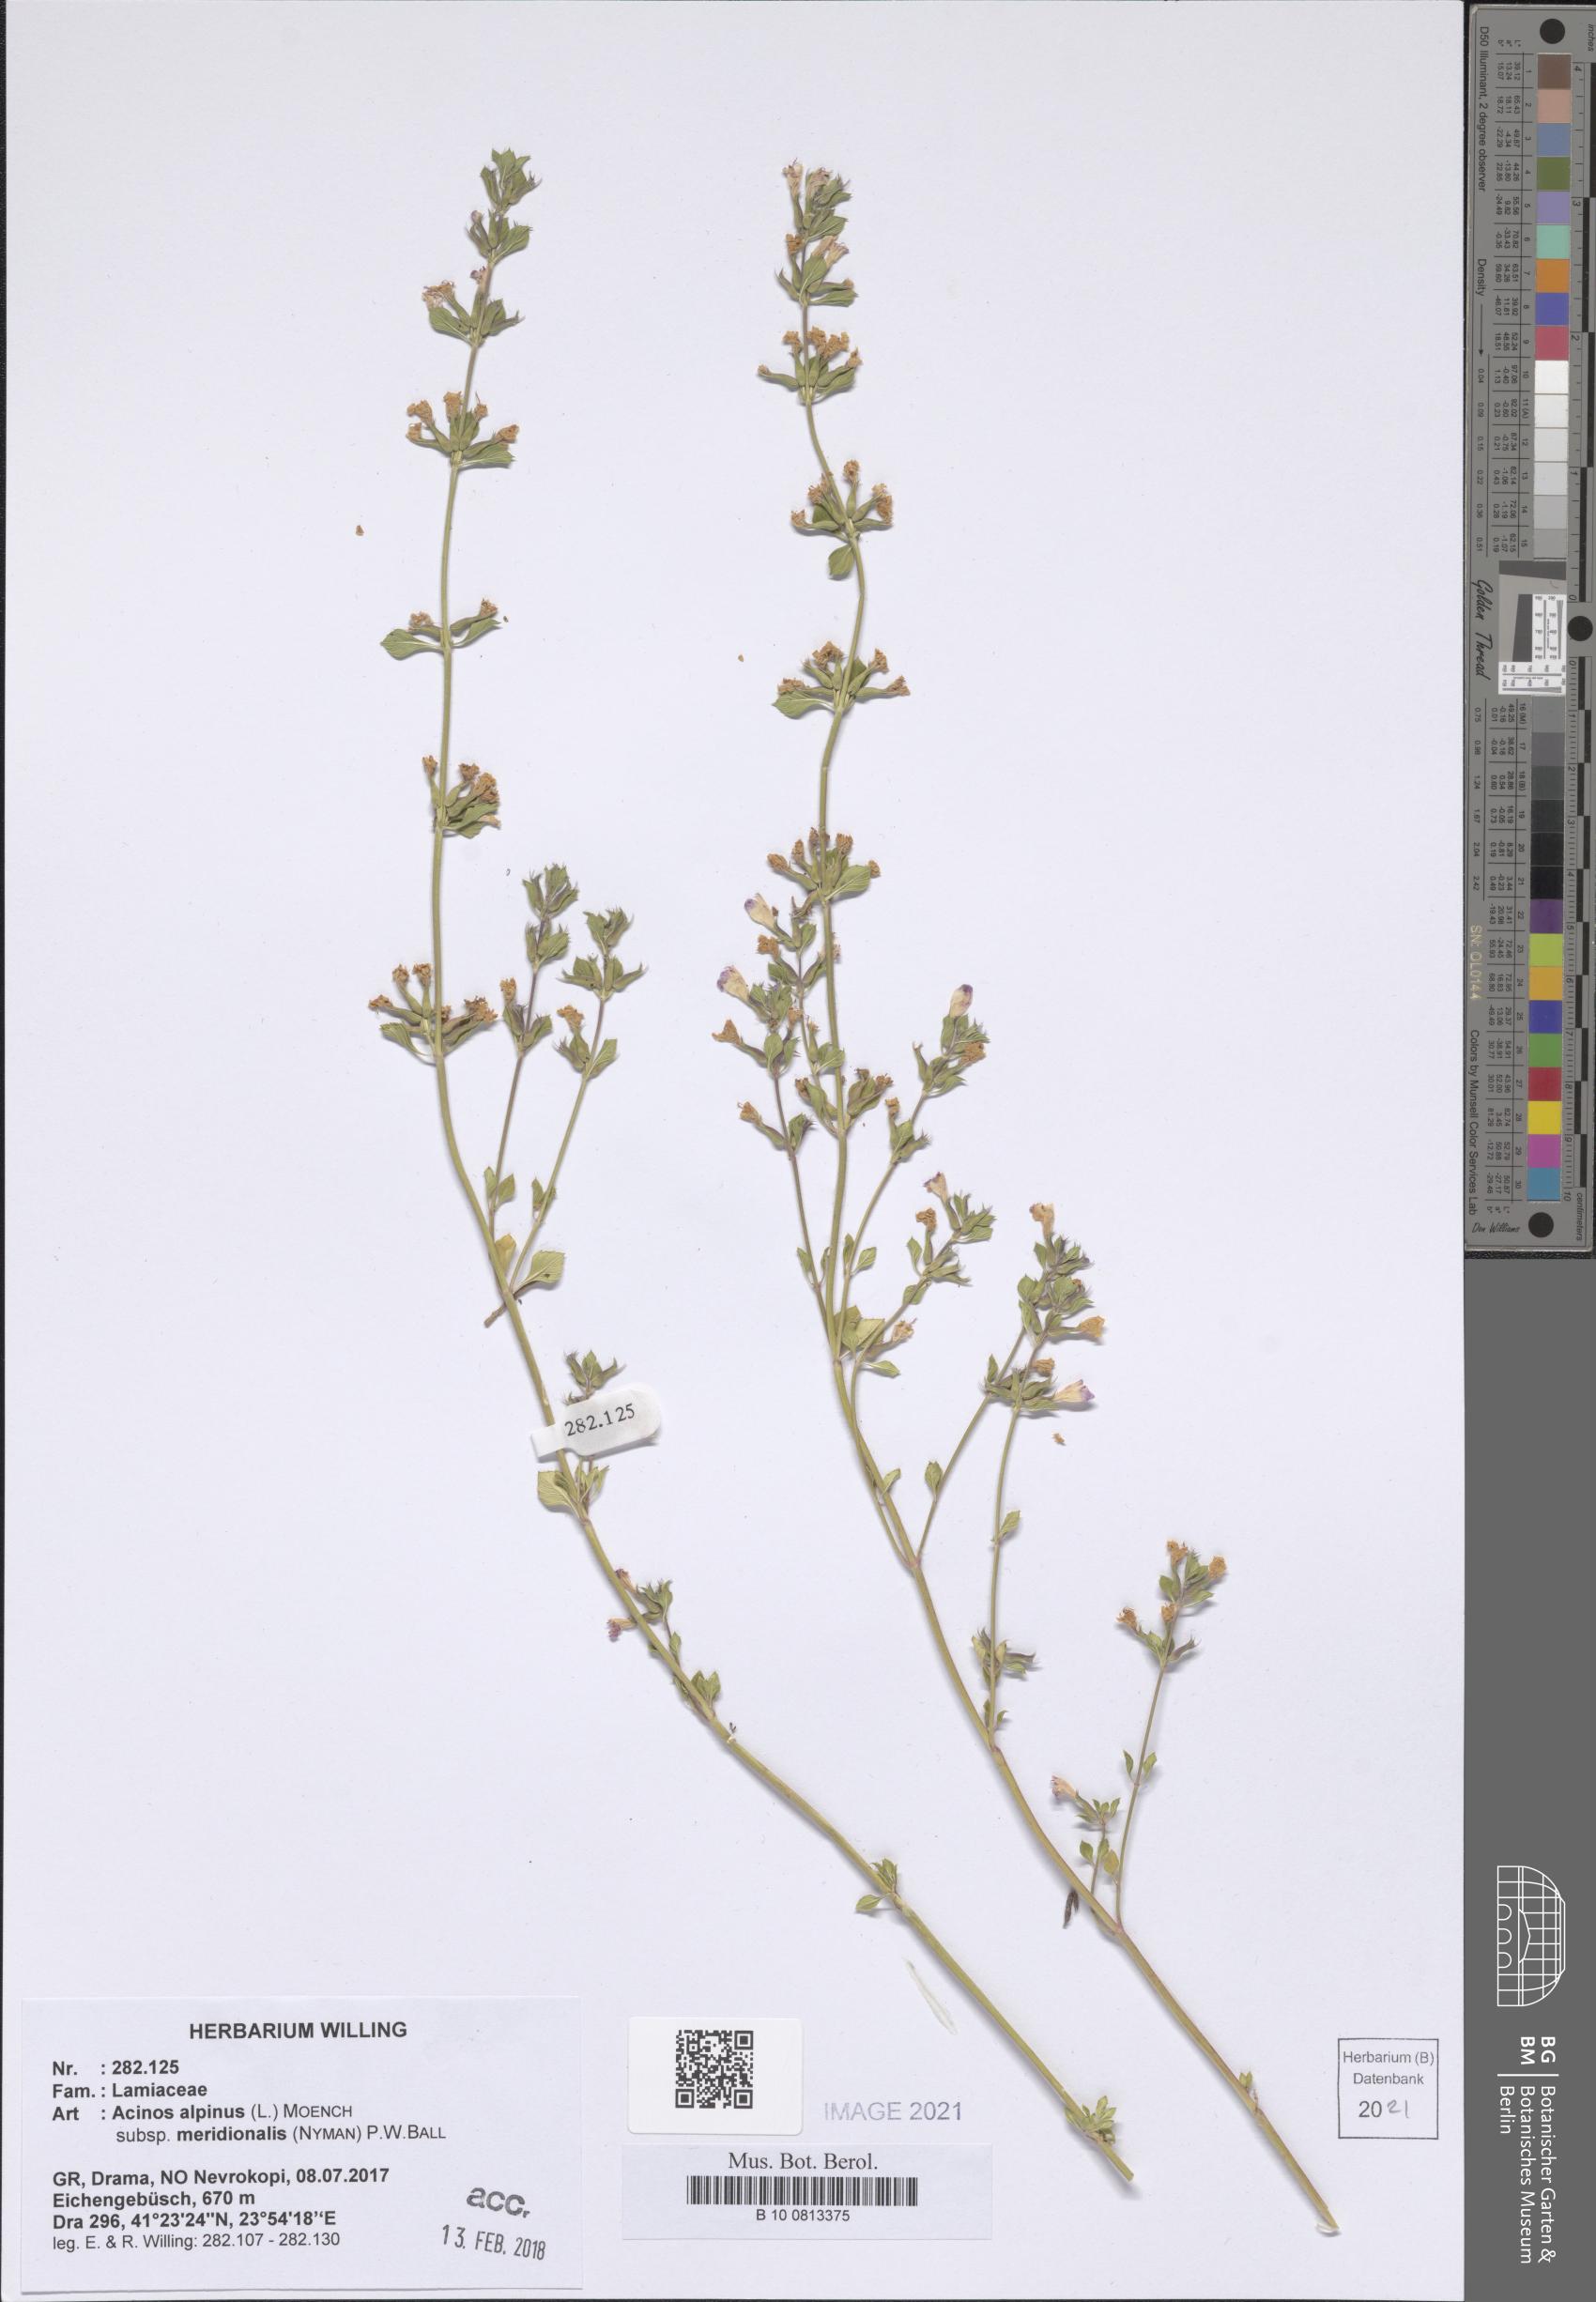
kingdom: Plantae
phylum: Tracheophyta
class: Magnoliopsida
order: Lamiales
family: Lamiaceae
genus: Clinopodium
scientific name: Clinopodium alpinum
